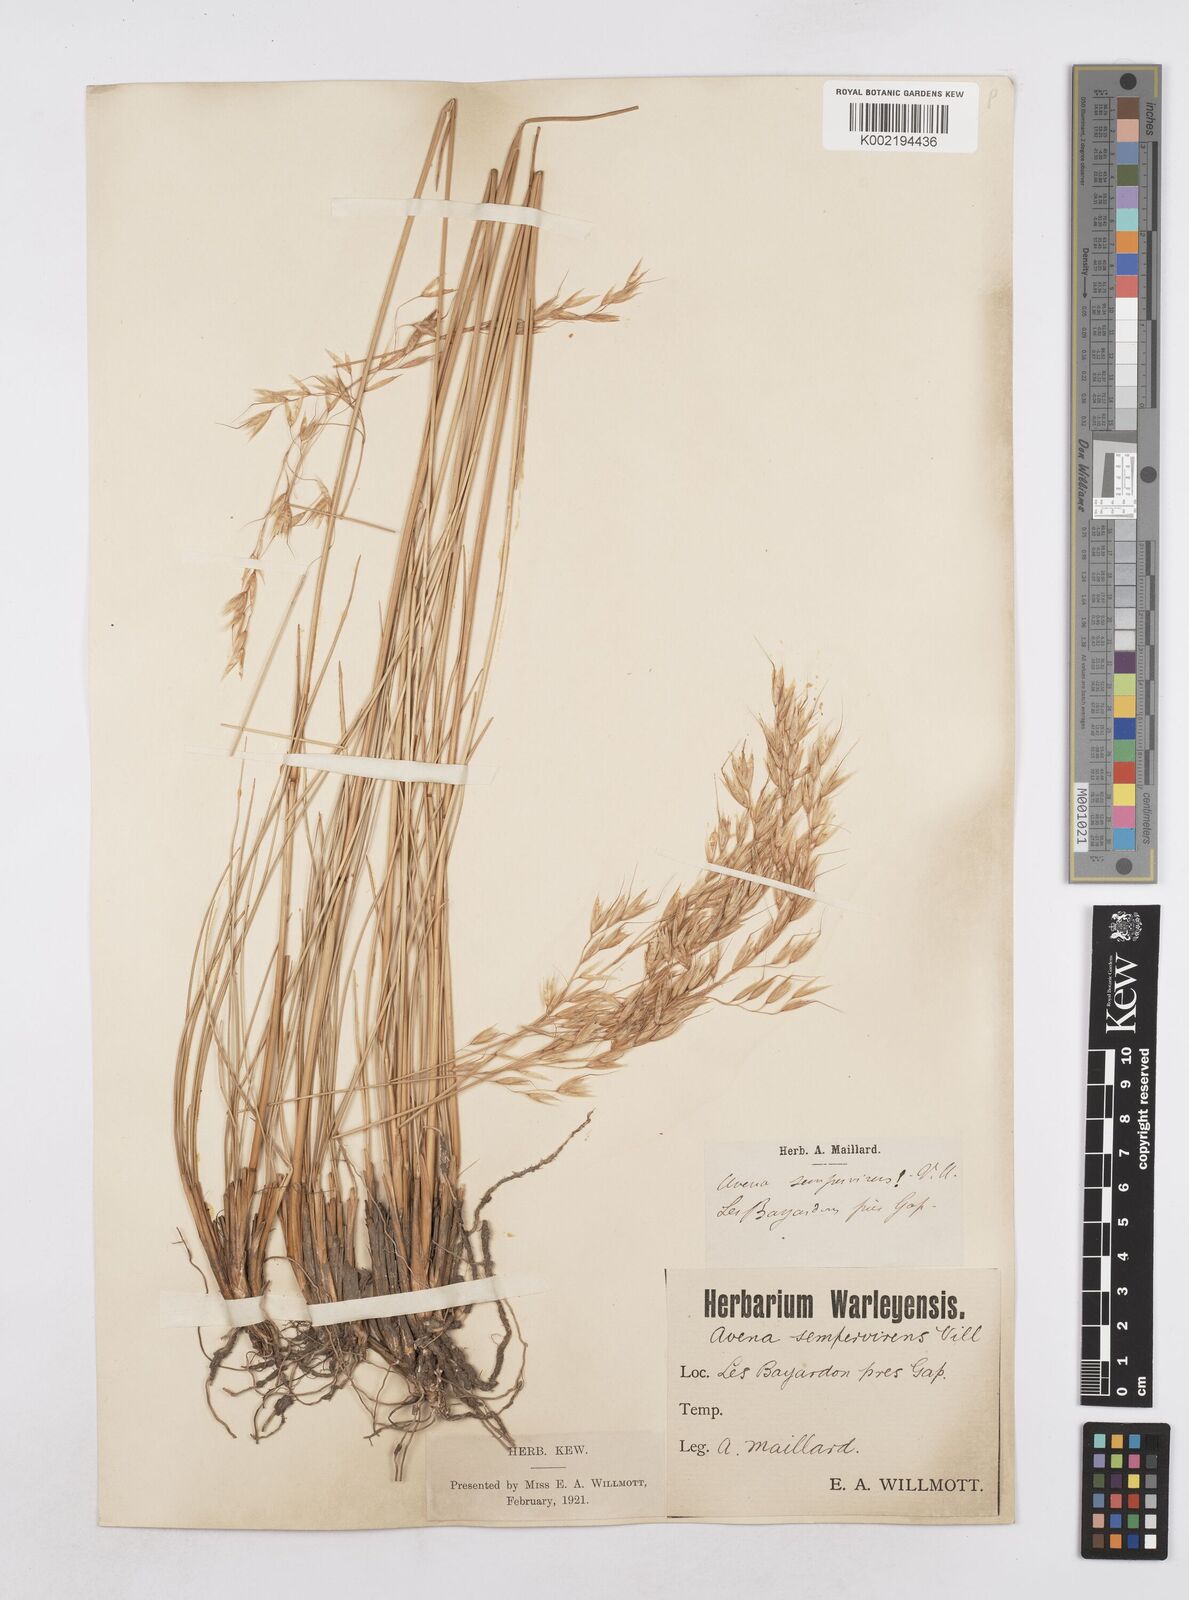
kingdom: Plantae
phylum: Tracheophyta
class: Liliopsida
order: Poales
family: Poaceae
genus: Helictotrichon
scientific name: Helictotrichon sempervirens
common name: Blue oat-grass
